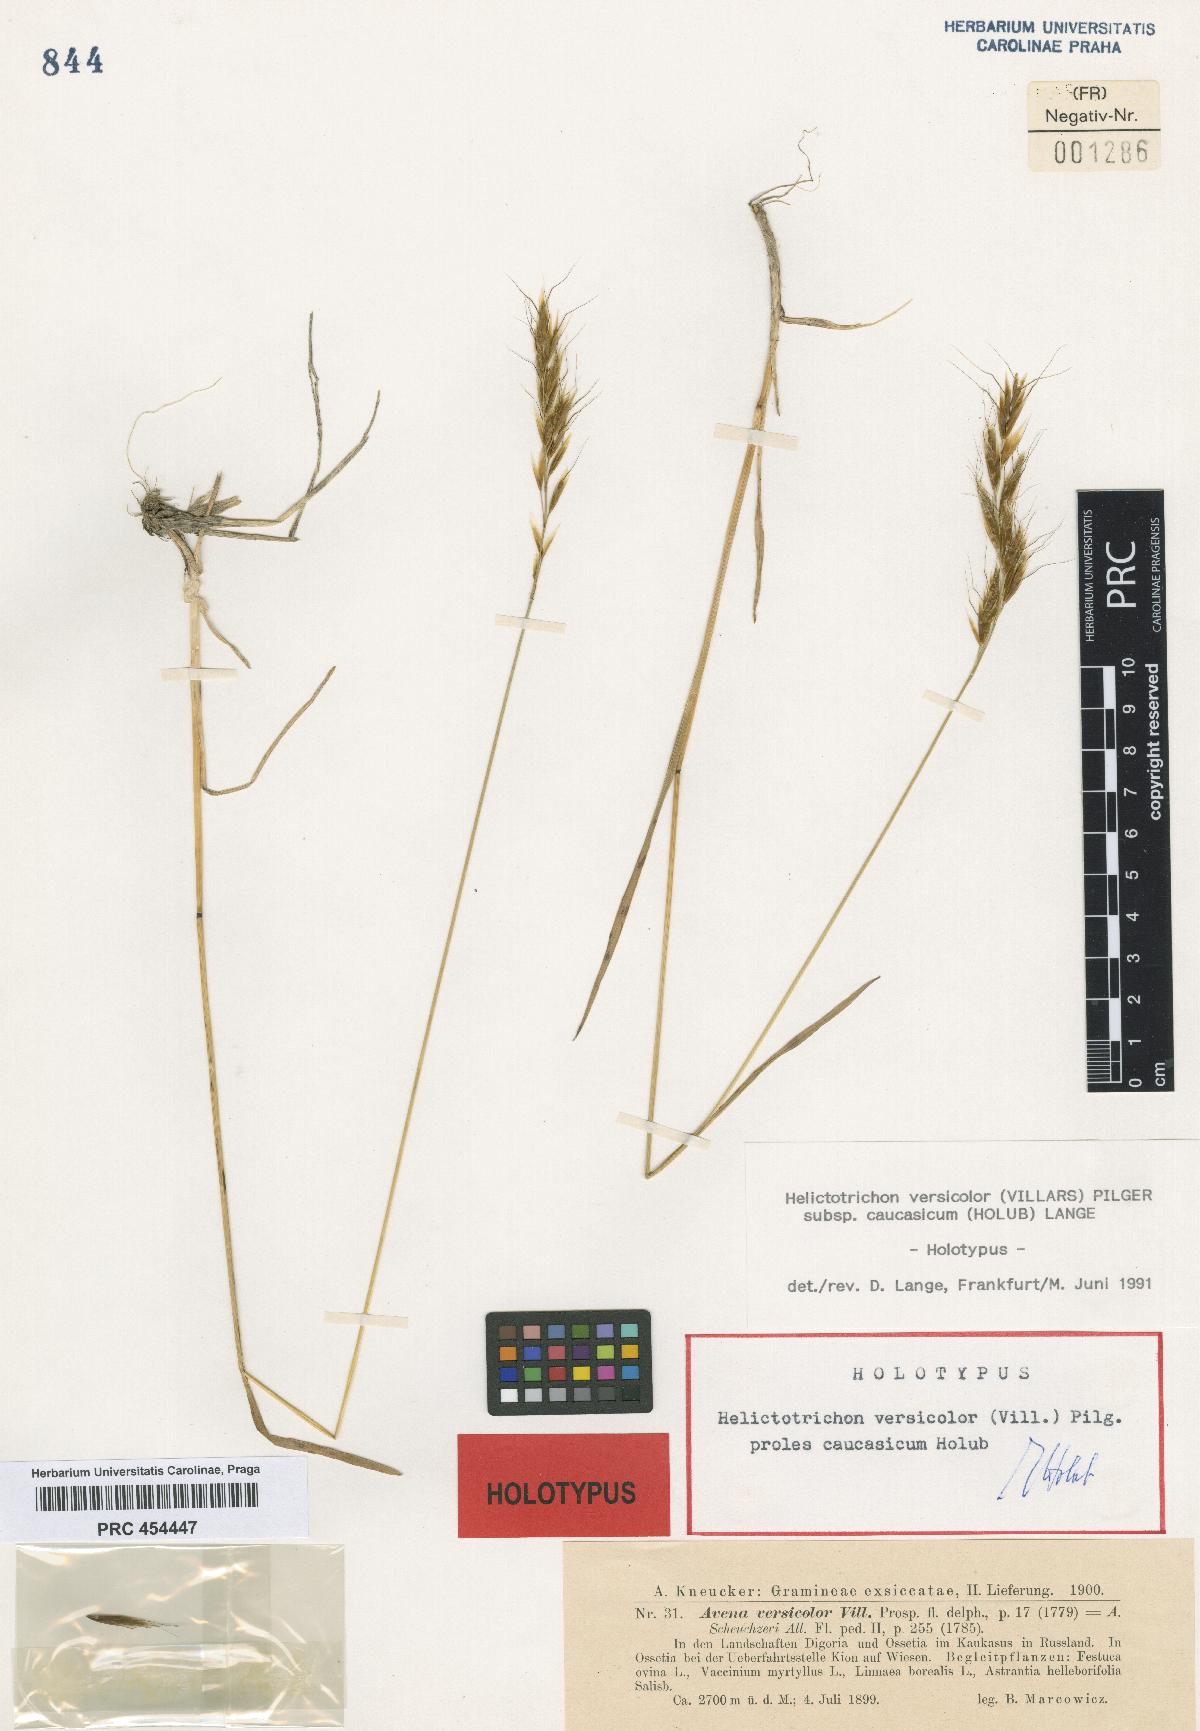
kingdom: Plantae
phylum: Tracheophyta
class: Liliopsida
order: Poales
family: Poaceae
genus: Helictochloa
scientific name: Helictochloa versicolor
